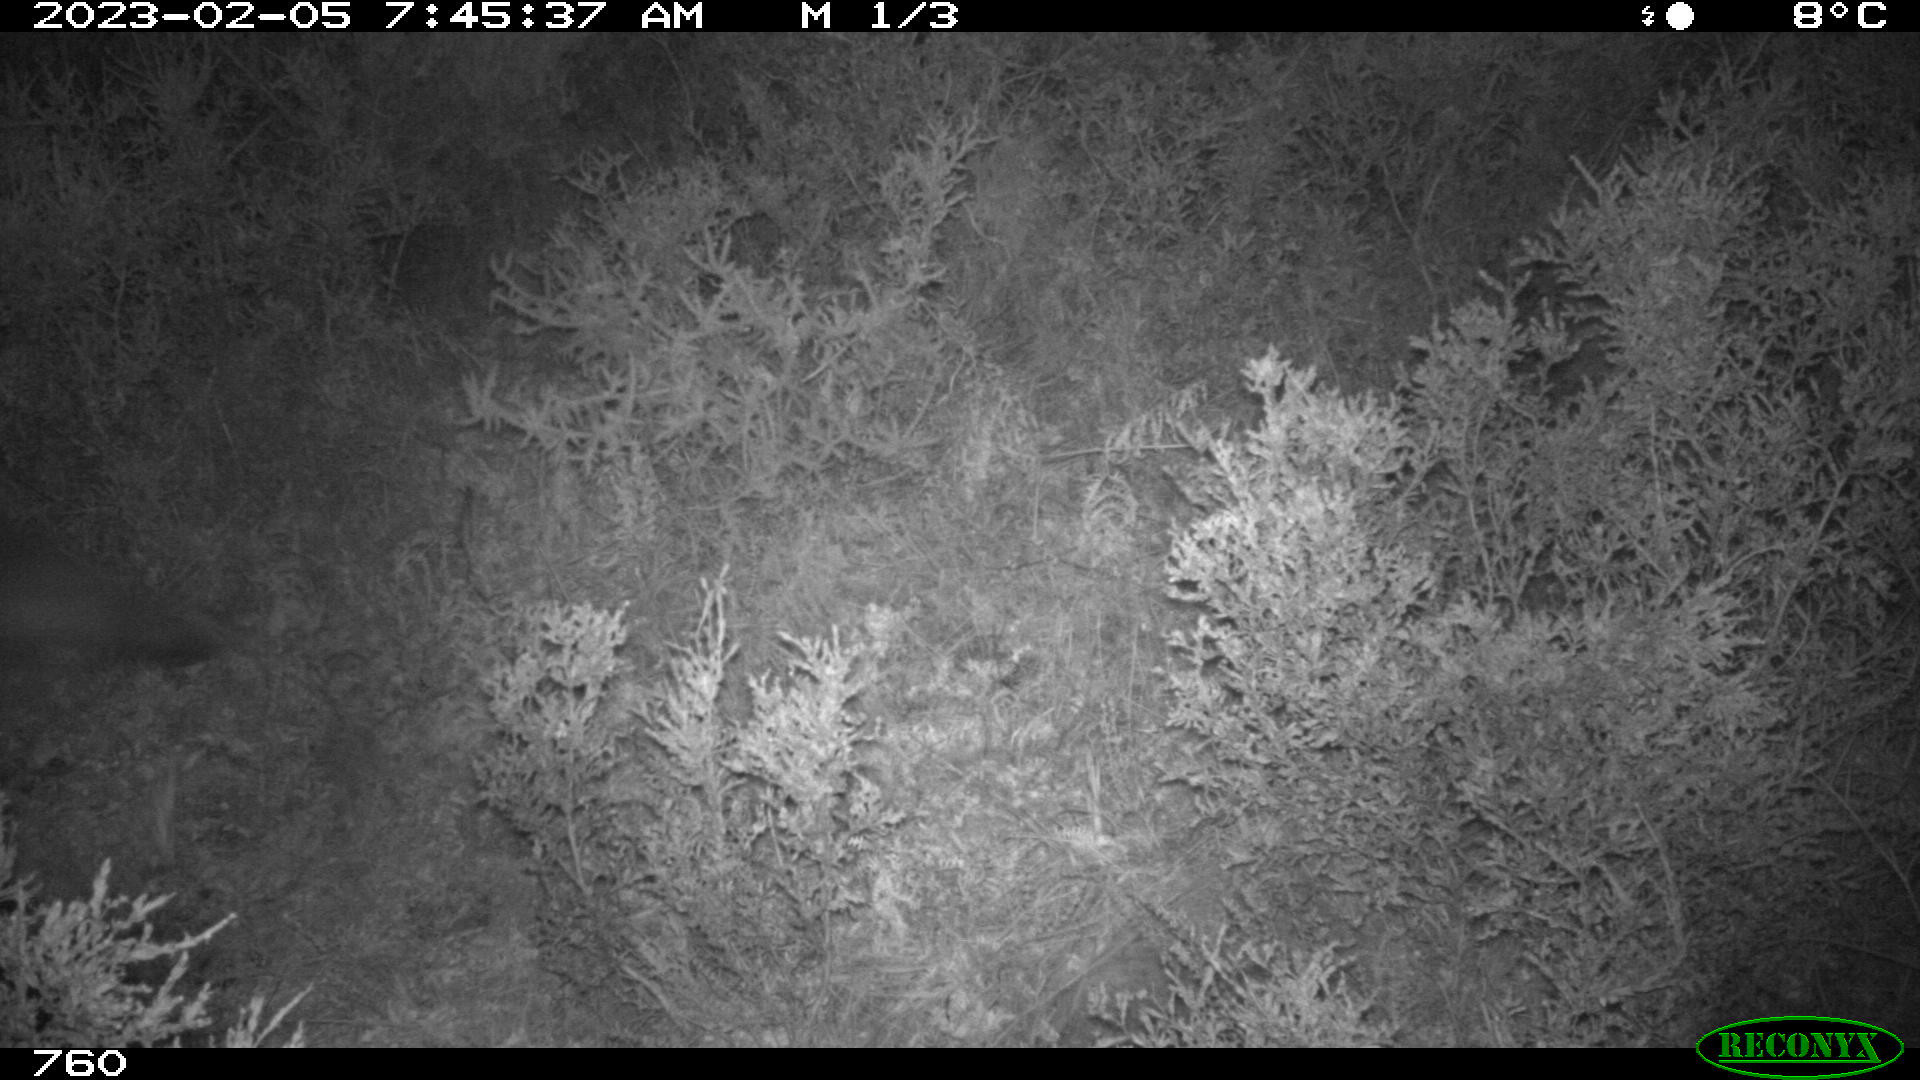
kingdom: Animalia
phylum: Chordata
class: Mammalia
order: Carnivora
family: Canidae
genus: Vulpes
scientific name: Vulpes vulpes
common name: Red fox
